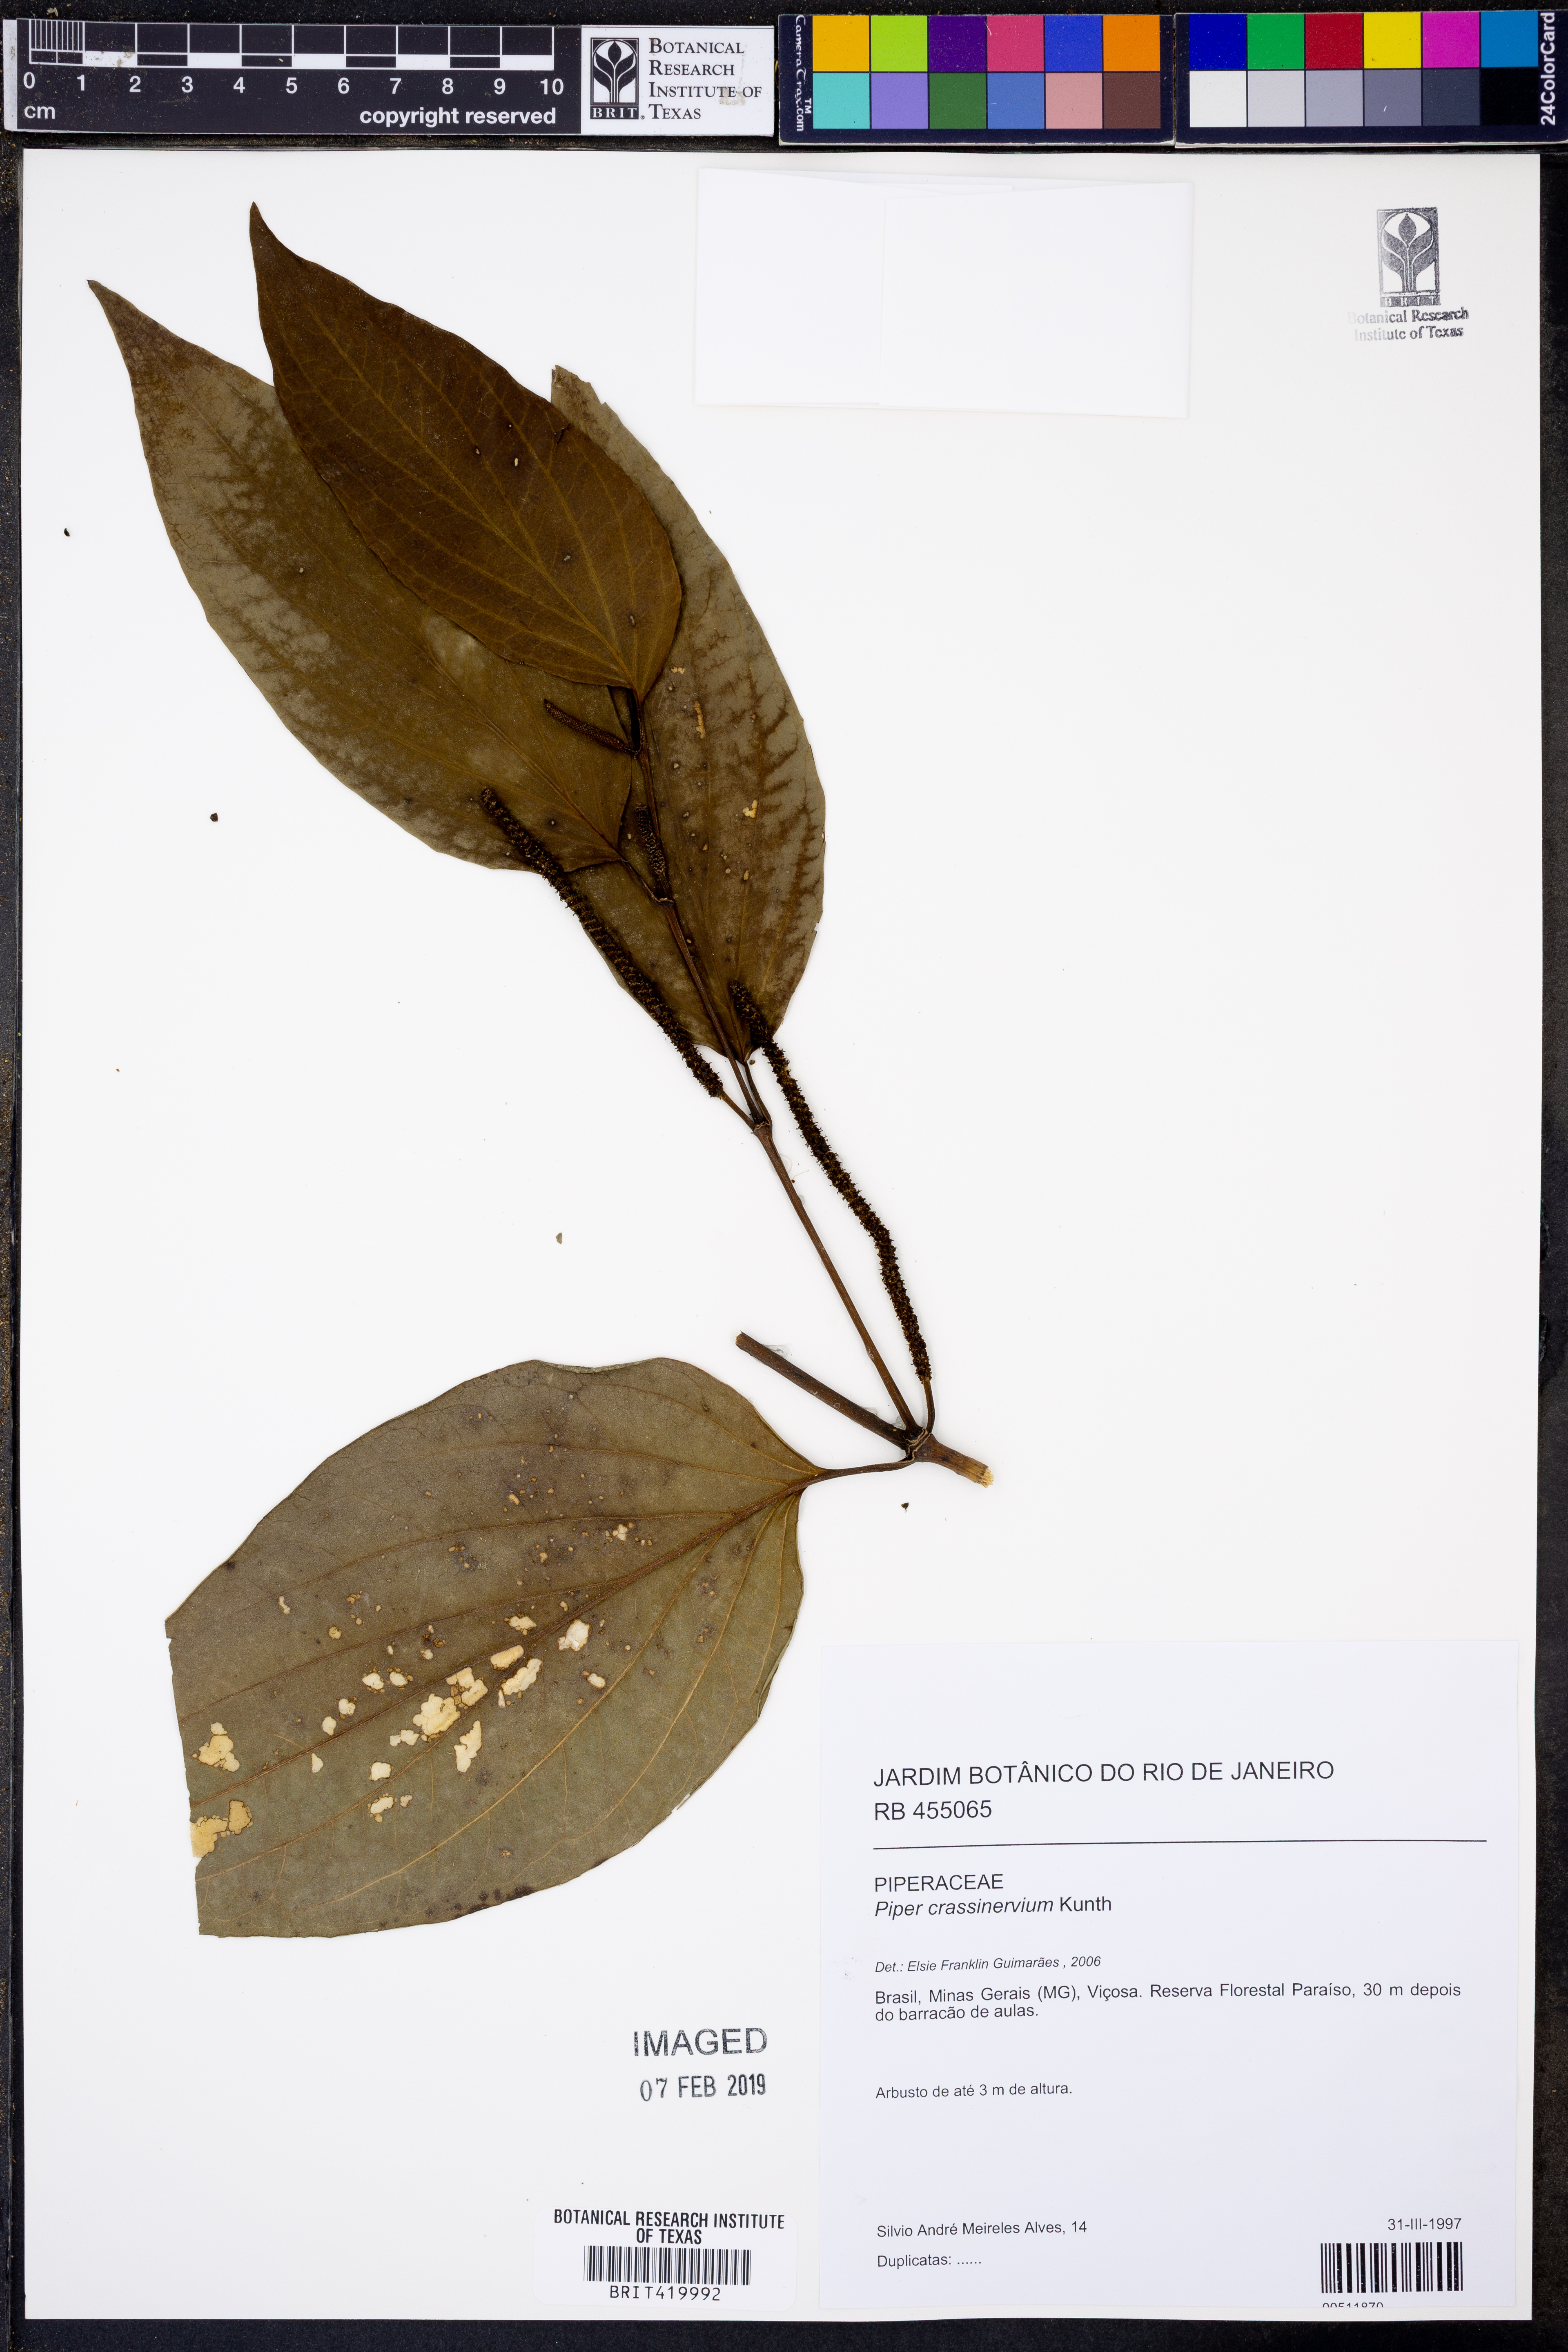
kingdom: Plantae
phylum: Tracheophyta
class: Magnoliopsida
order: Piperales
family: Piperaceae
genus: Piper
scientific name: Piper crassinervium
